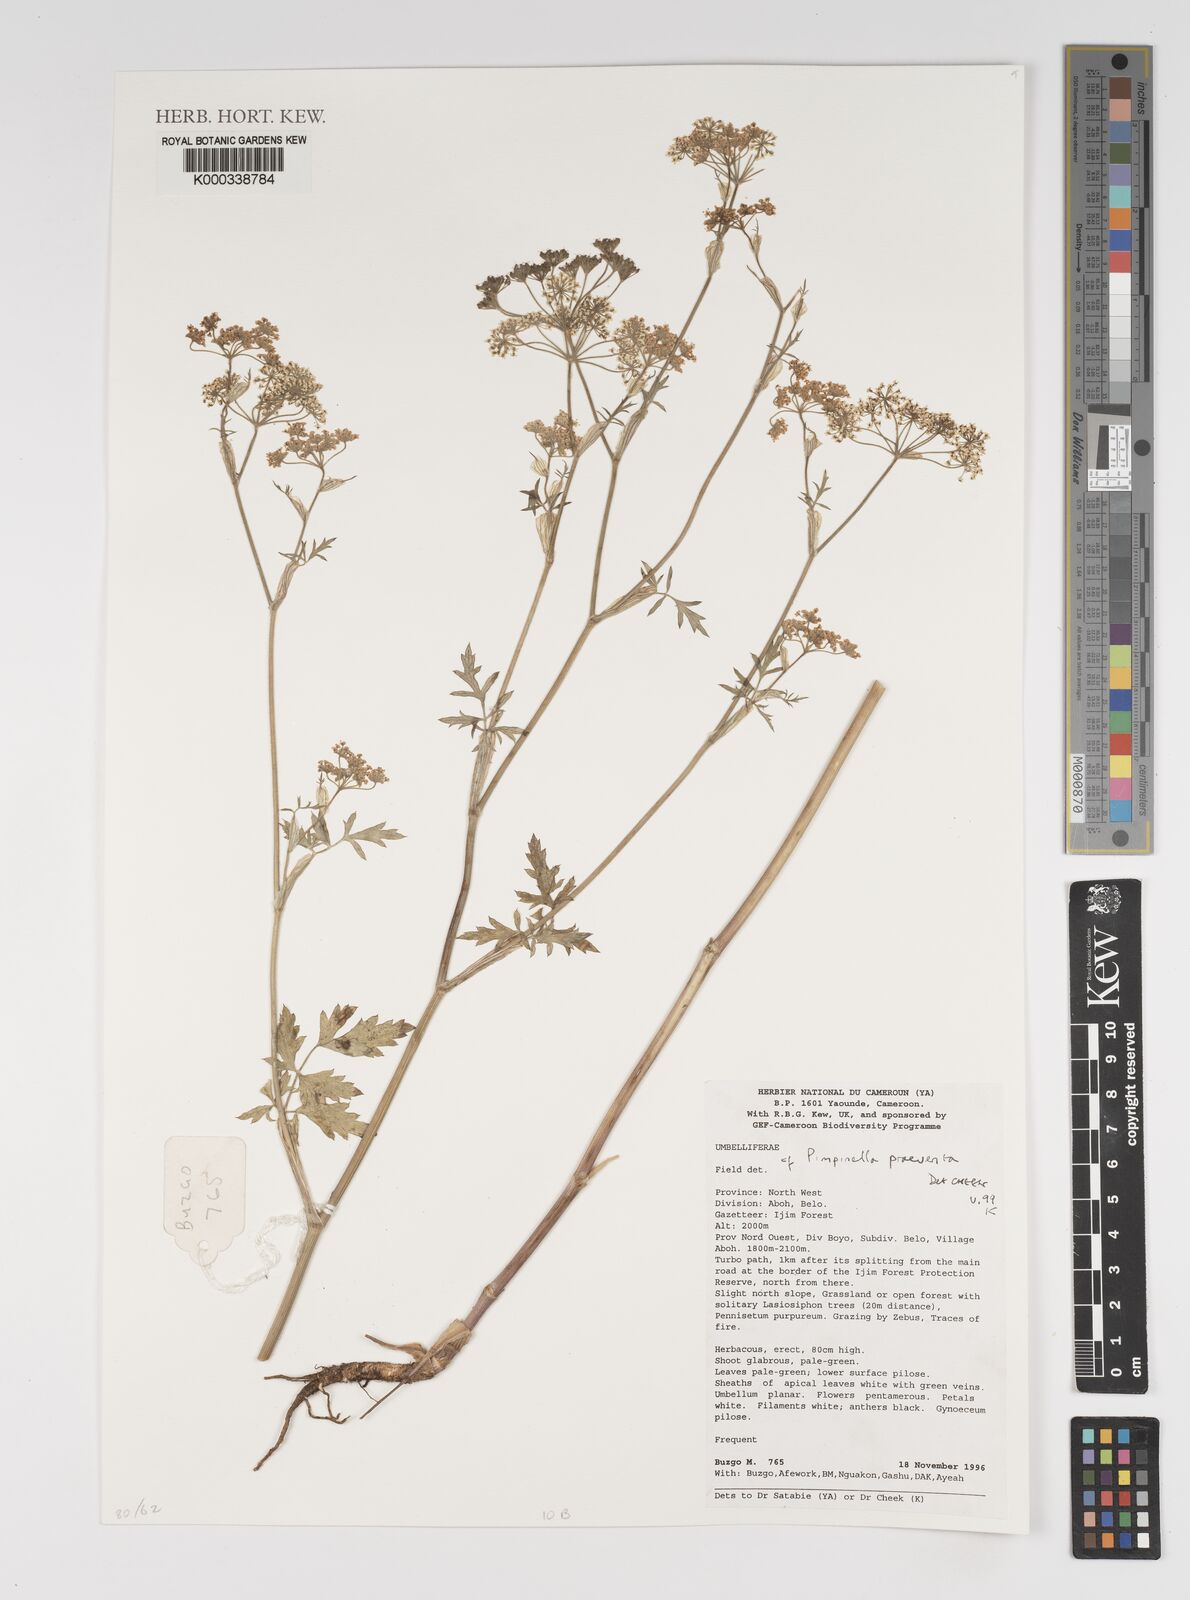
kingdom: Plantae
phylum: Tracheophyta
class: Magnoliopsida
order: Apiales
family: Apiaceae
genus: Pimpinella
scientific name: Pimpinella hirtella
